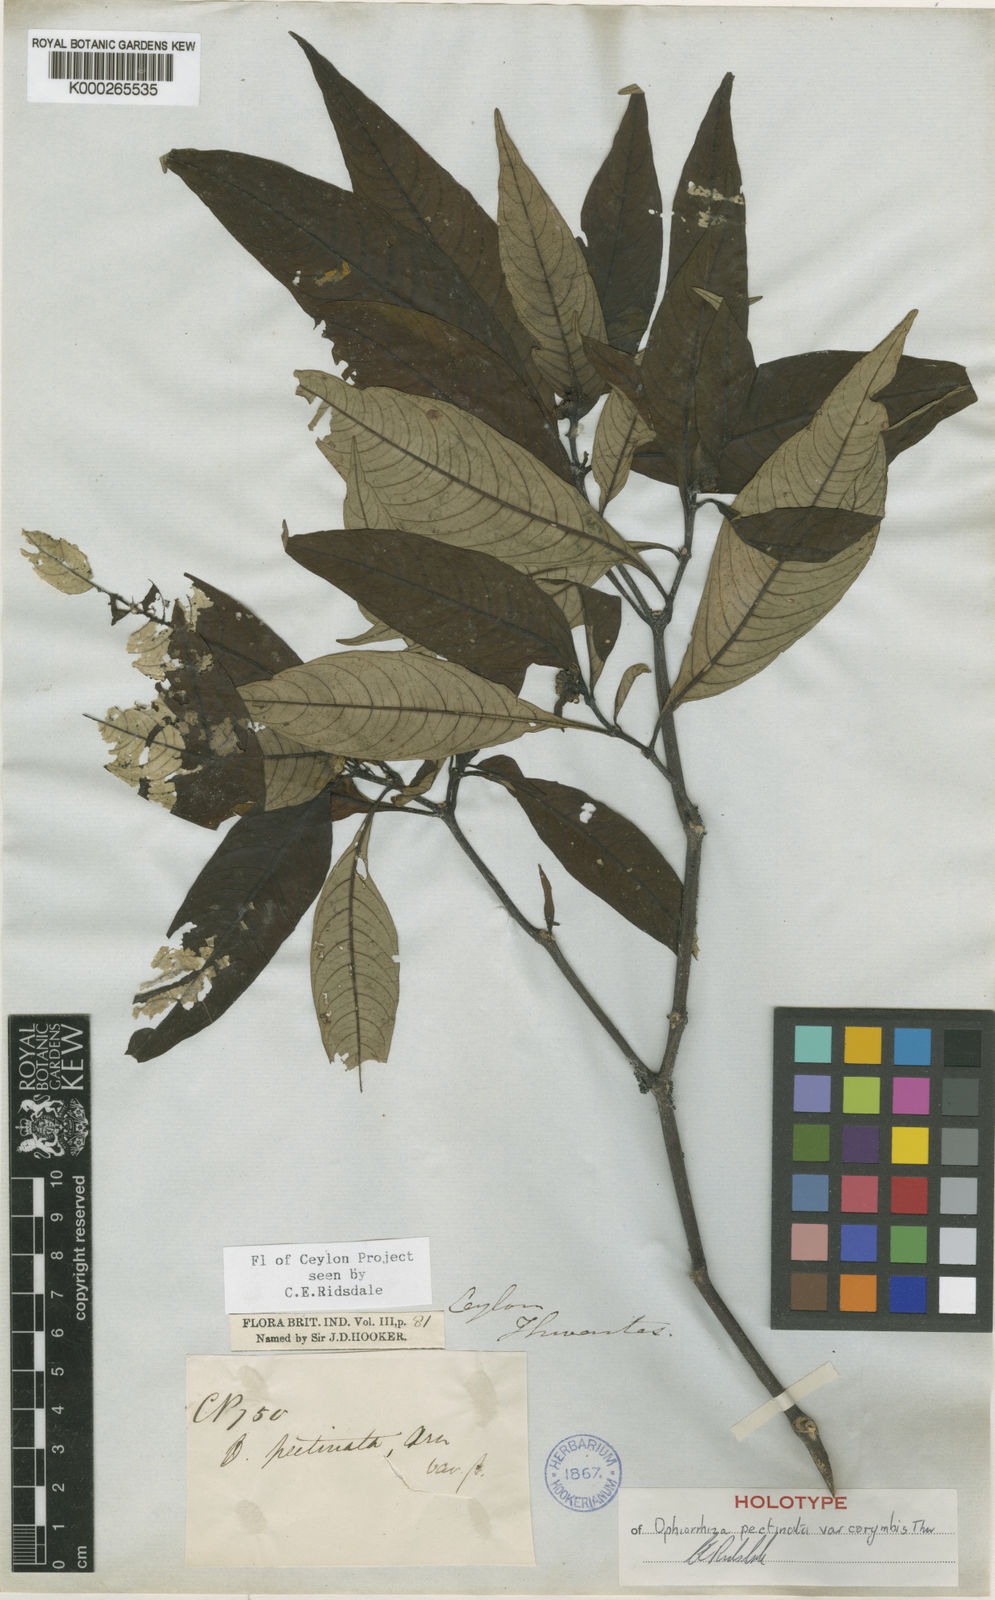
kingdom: Plantae
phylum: Tracheophyta
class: Magnoliopsida
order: Gentianales
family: Rubiaceae
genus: Ophiorrhiza
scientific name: Ophiorrhiza pectinata
